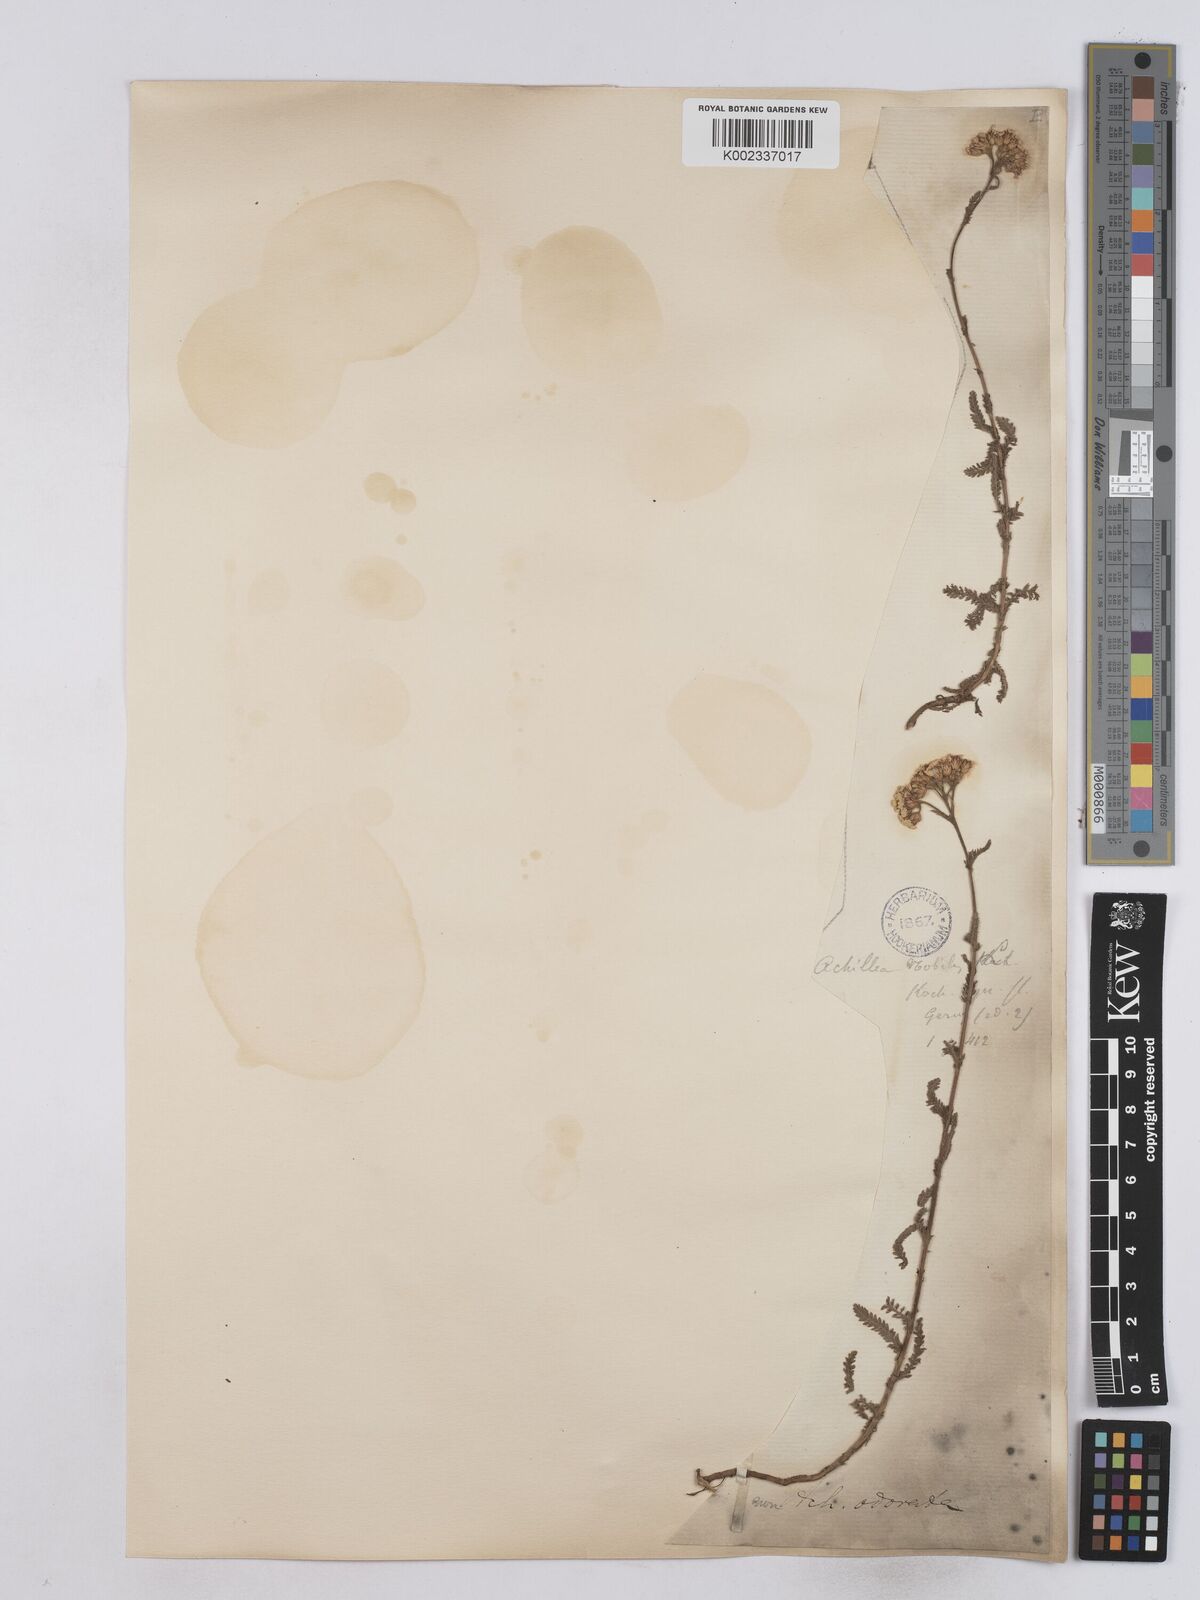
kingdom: Plantae
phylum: Tracheophyta
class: Magnoliopsida
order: Asterales
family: Asteraceae
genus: Achillea
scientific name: Achillea nobilis
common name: Noble yarrow
